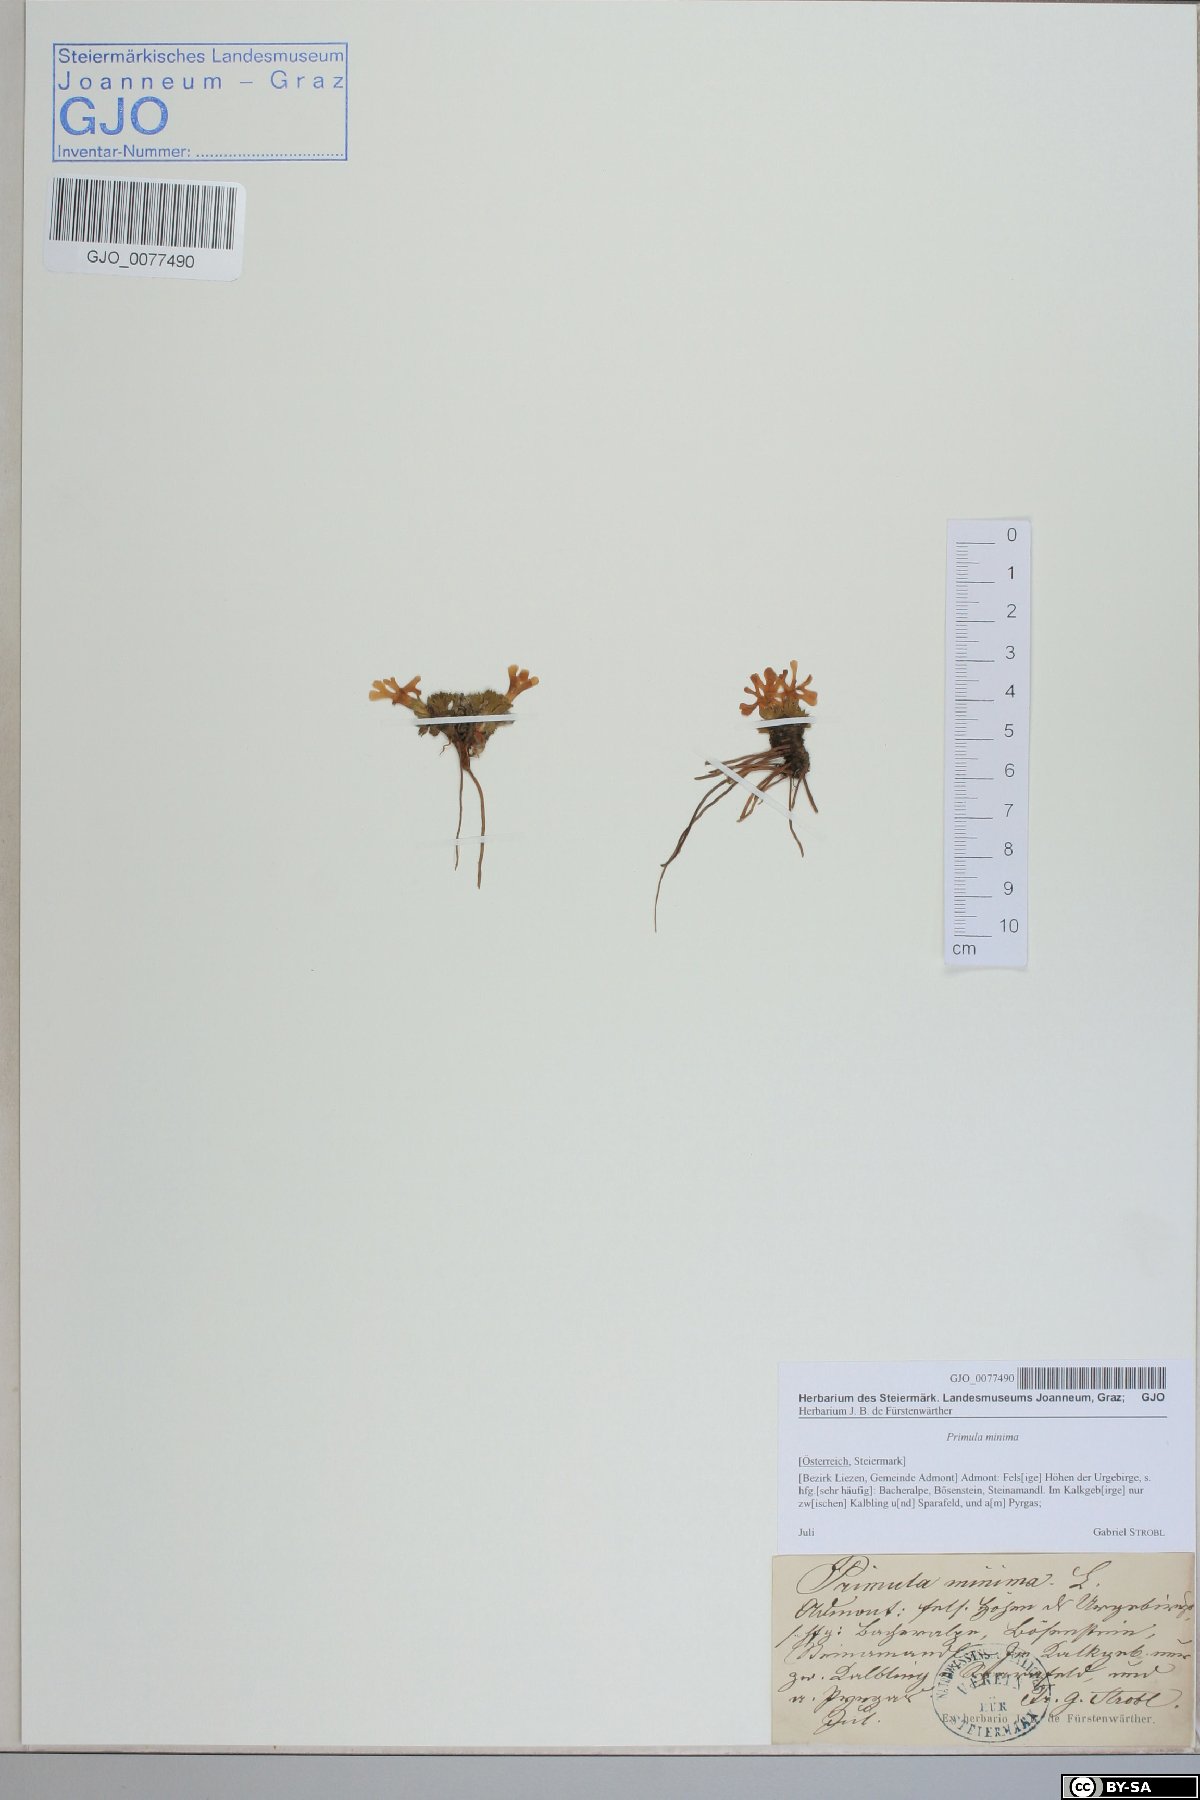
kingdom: Plantae
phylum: Tracheophyta
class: Magnoliopsida
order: Ericales
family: Primulaceae
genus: Primula
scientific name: Primula minima
